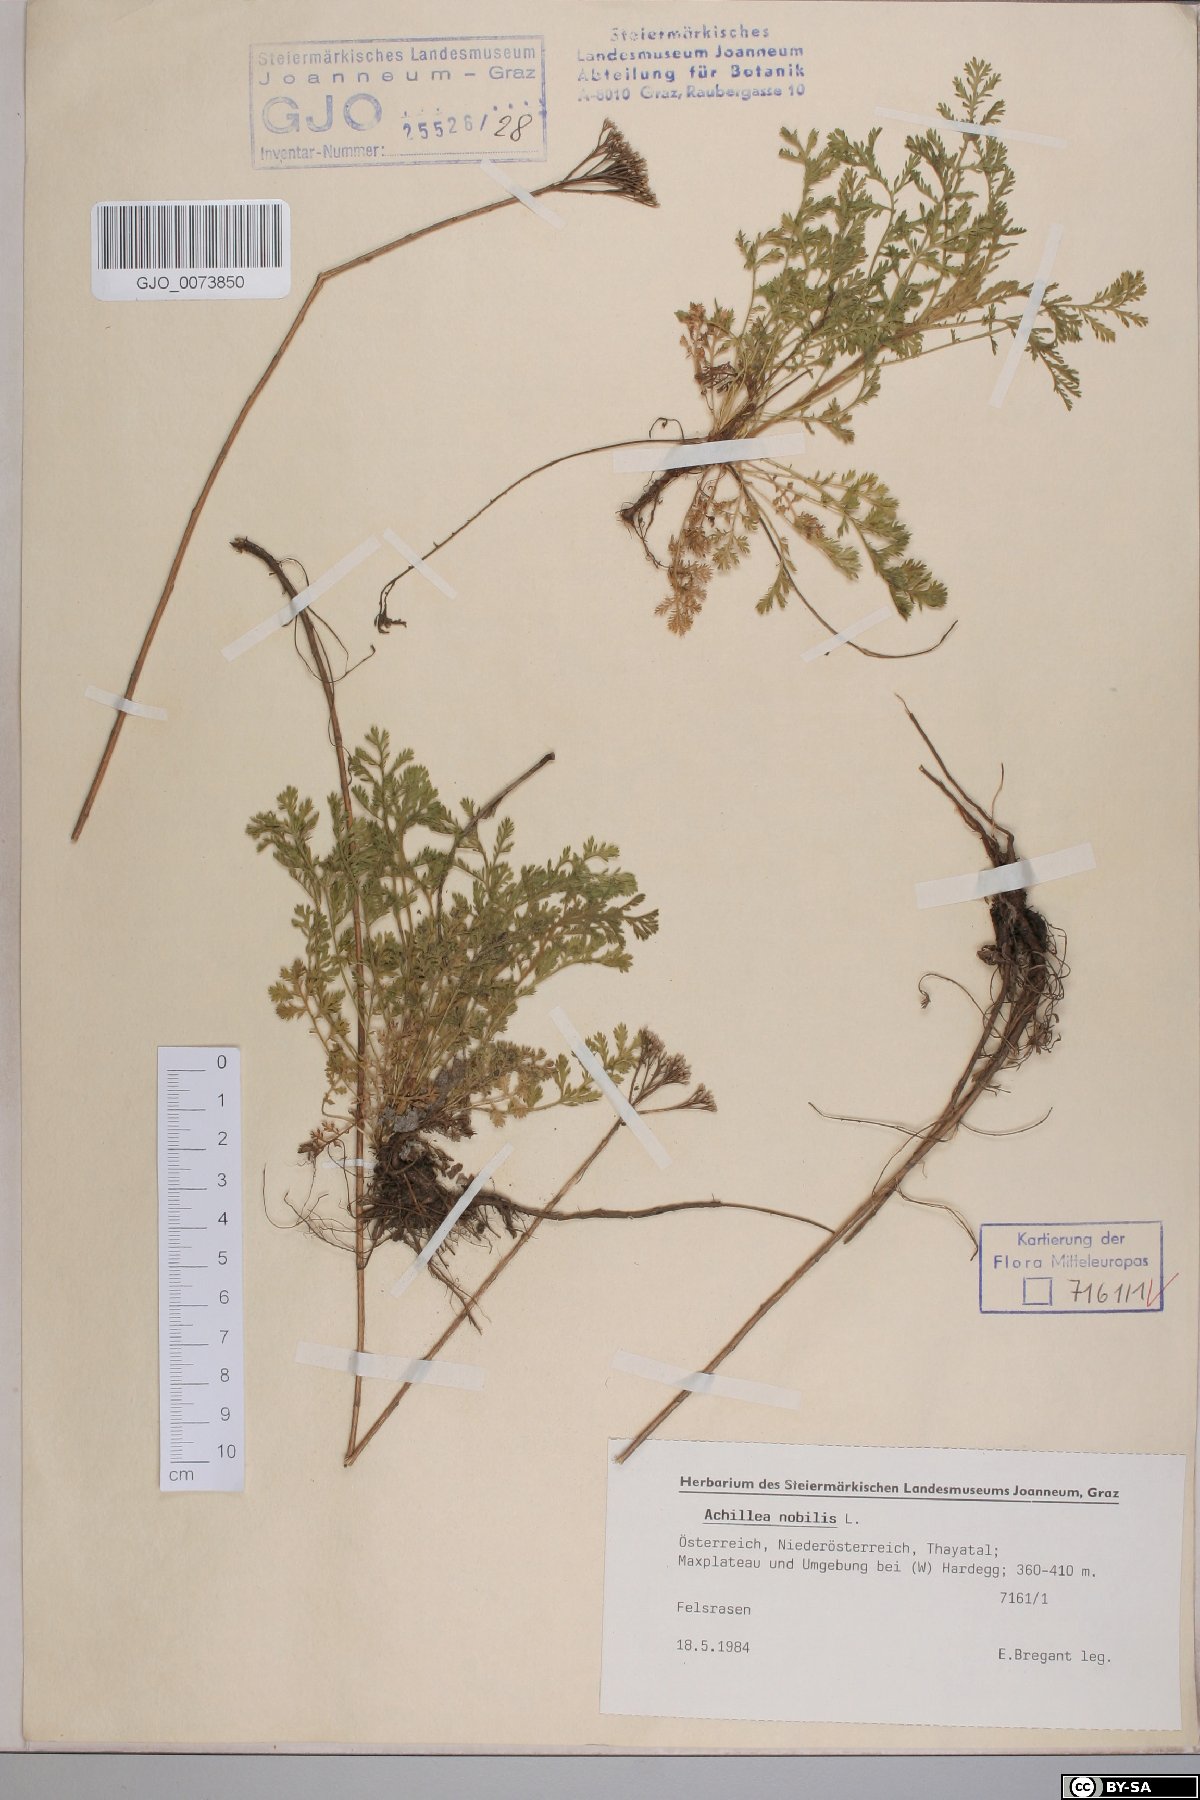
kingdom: Plantae
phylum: Tracheophyta
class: Magnoliopsida
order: Asterales
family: Asteraceae
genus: Achillea
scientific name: Achillea nobilis
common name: Noble yarrow
